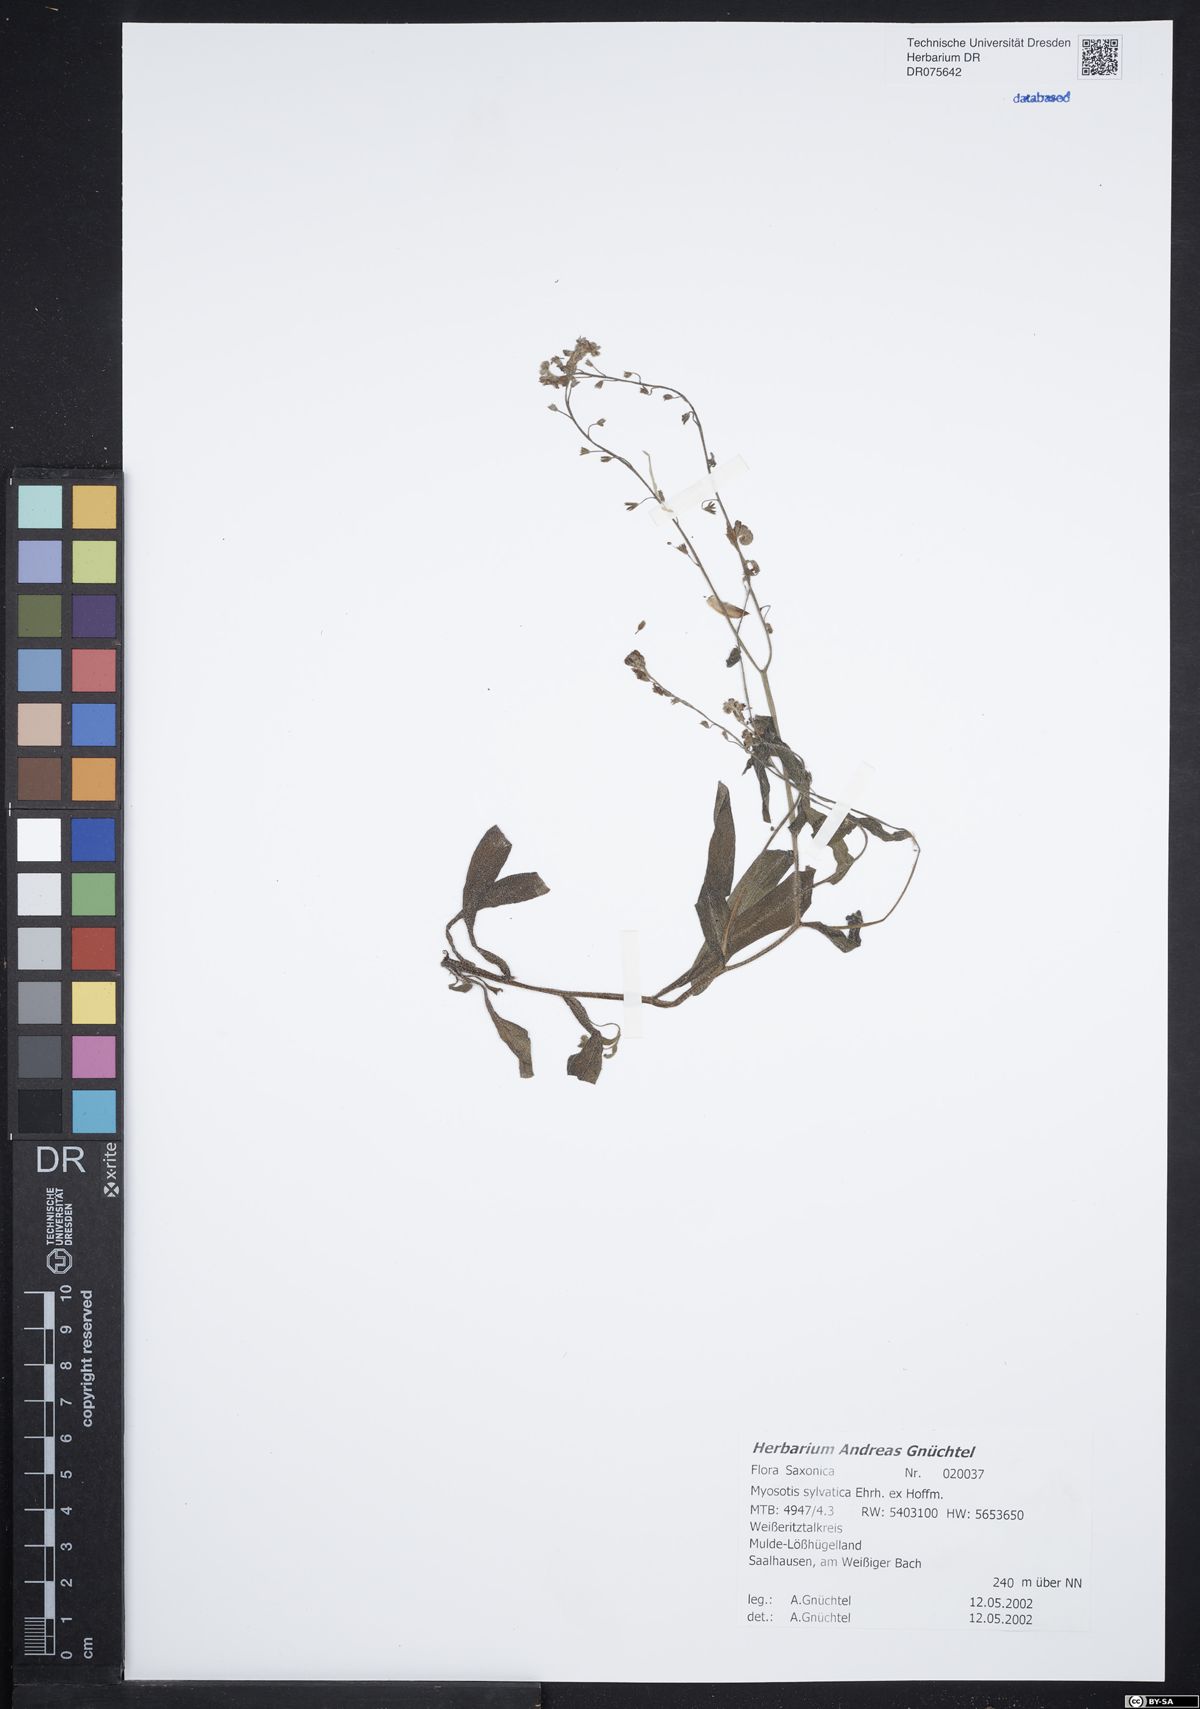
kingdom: Plantae
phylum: Tracheophyta
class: Magnoliopsida
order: Boraginales
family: Boraginaceae
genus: Myosotis
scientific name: Myosotis sylvatica
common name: Wood forget-me-not
